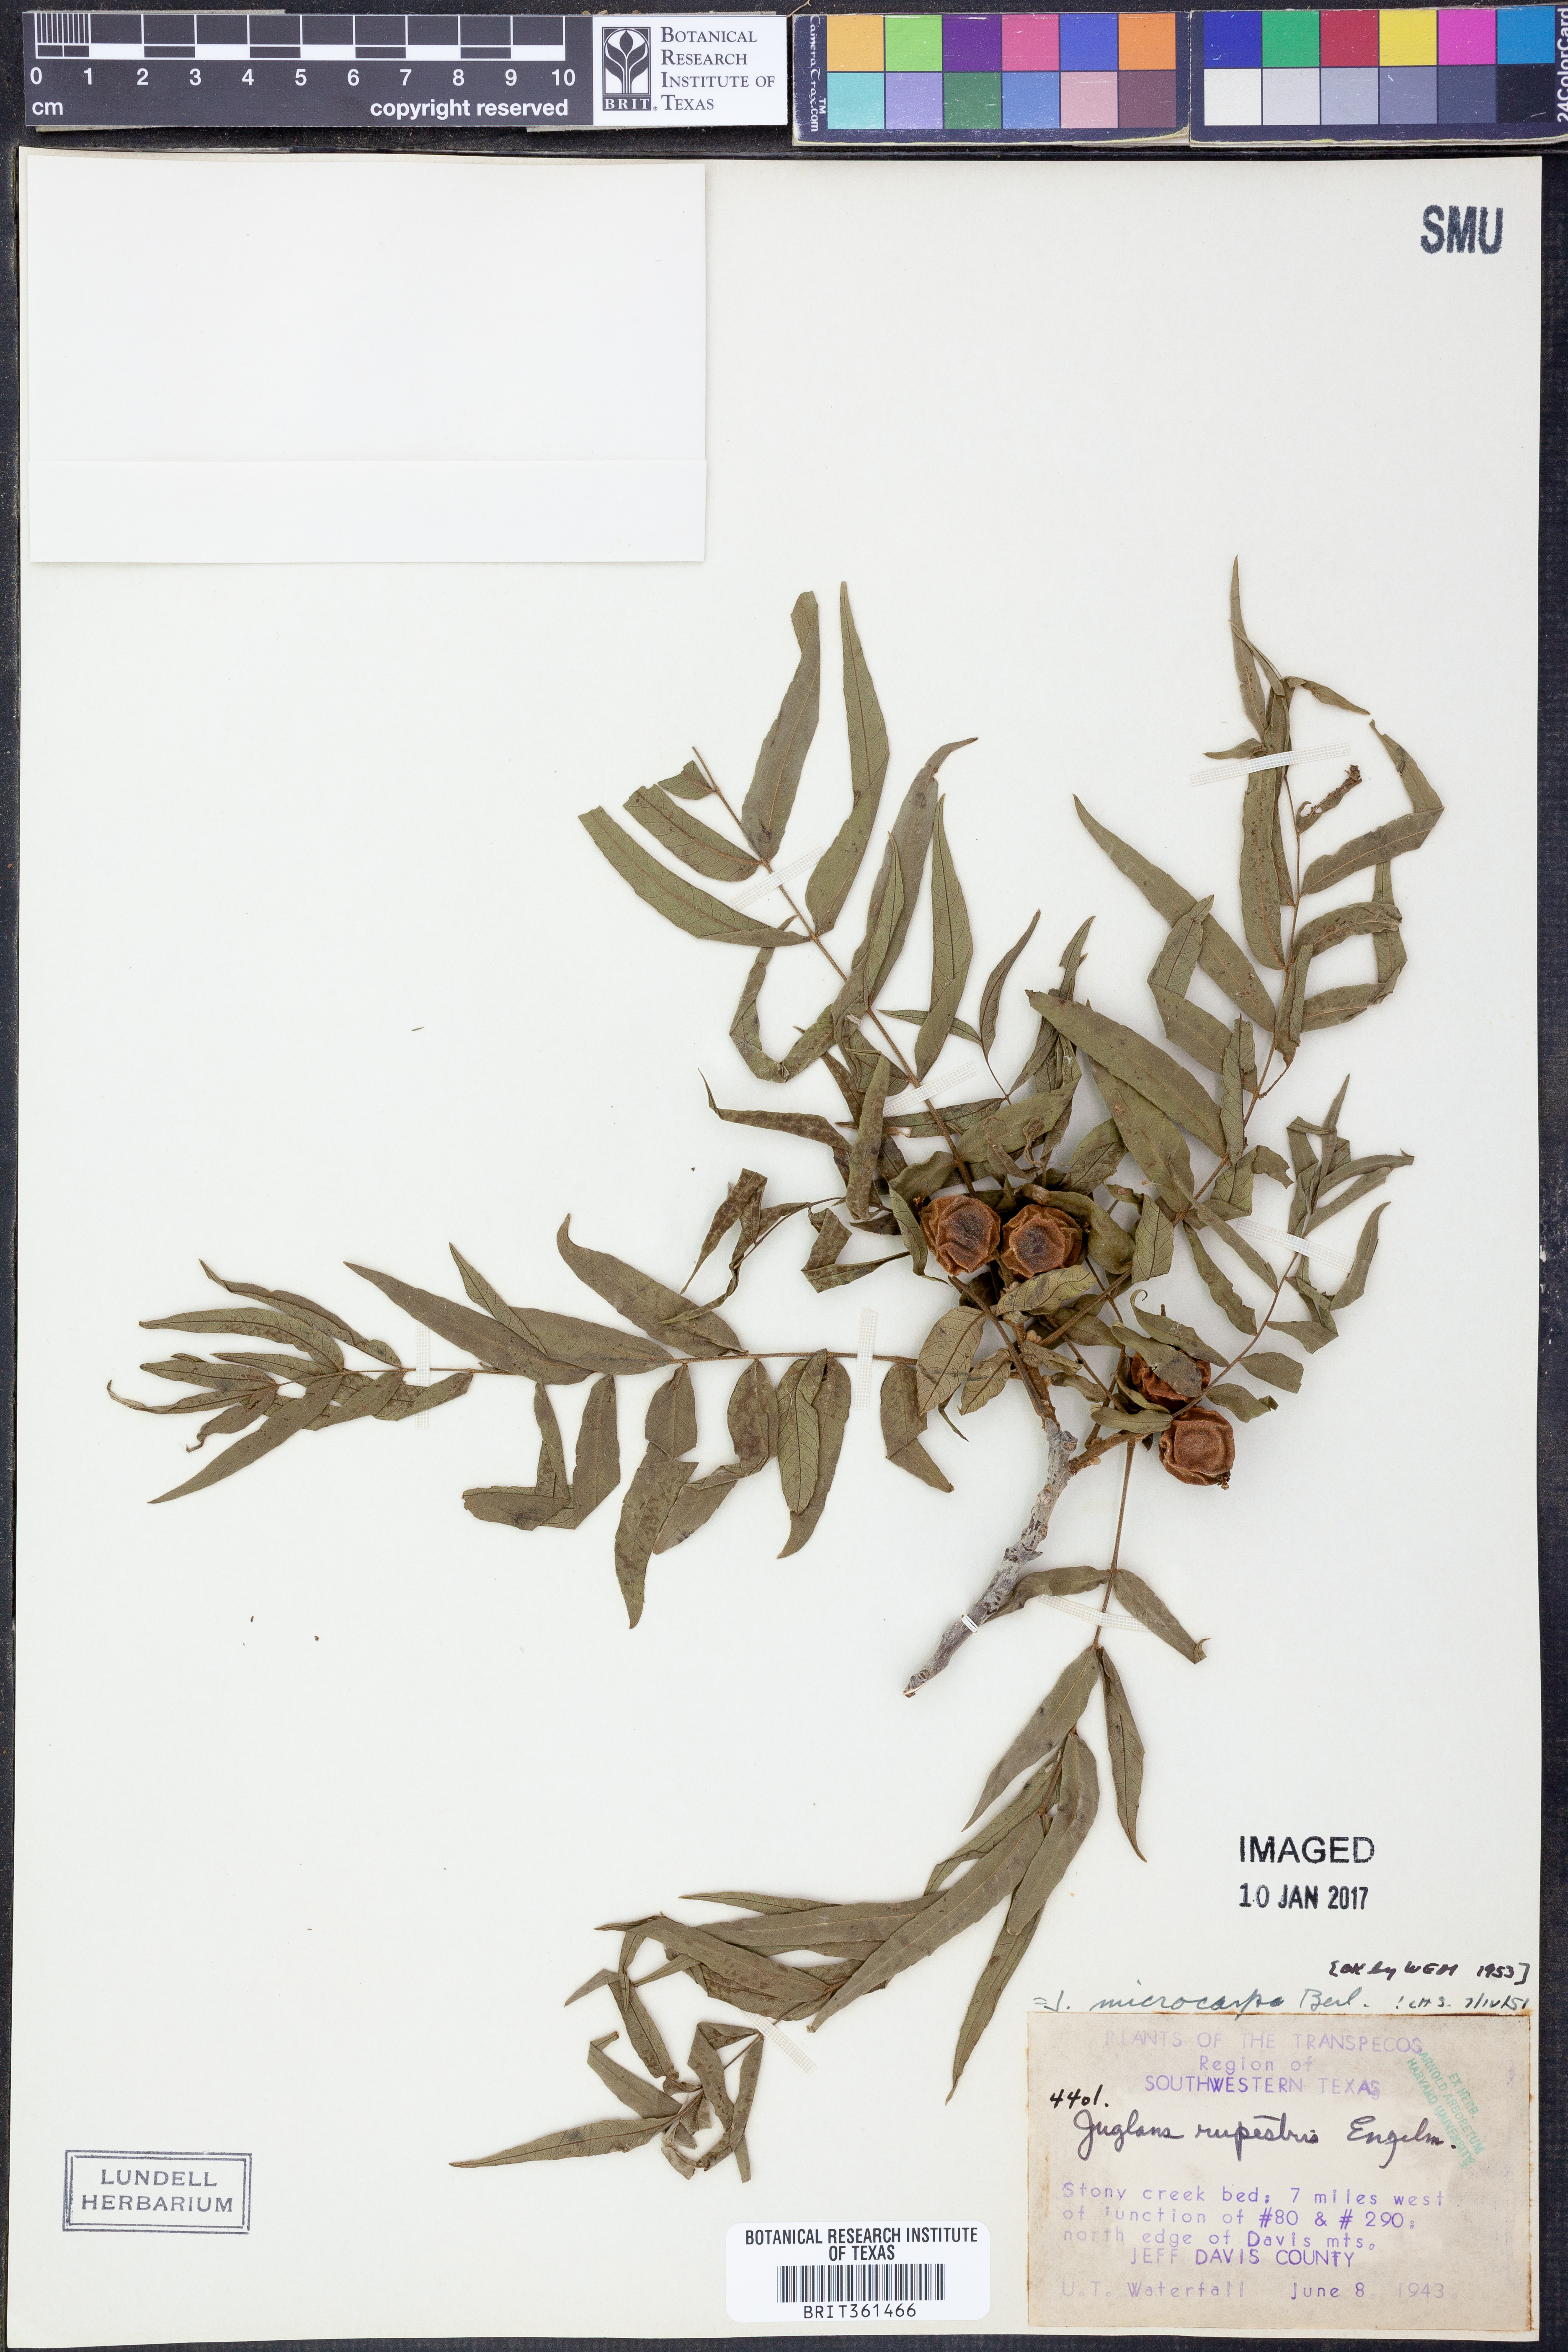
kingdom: Plantae
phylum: Tracheophyta
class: Magnoliopsida
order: Fagales
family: Juglandaceae
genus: Juglans
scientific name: Juglans microcarpa
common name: Texas walnut
